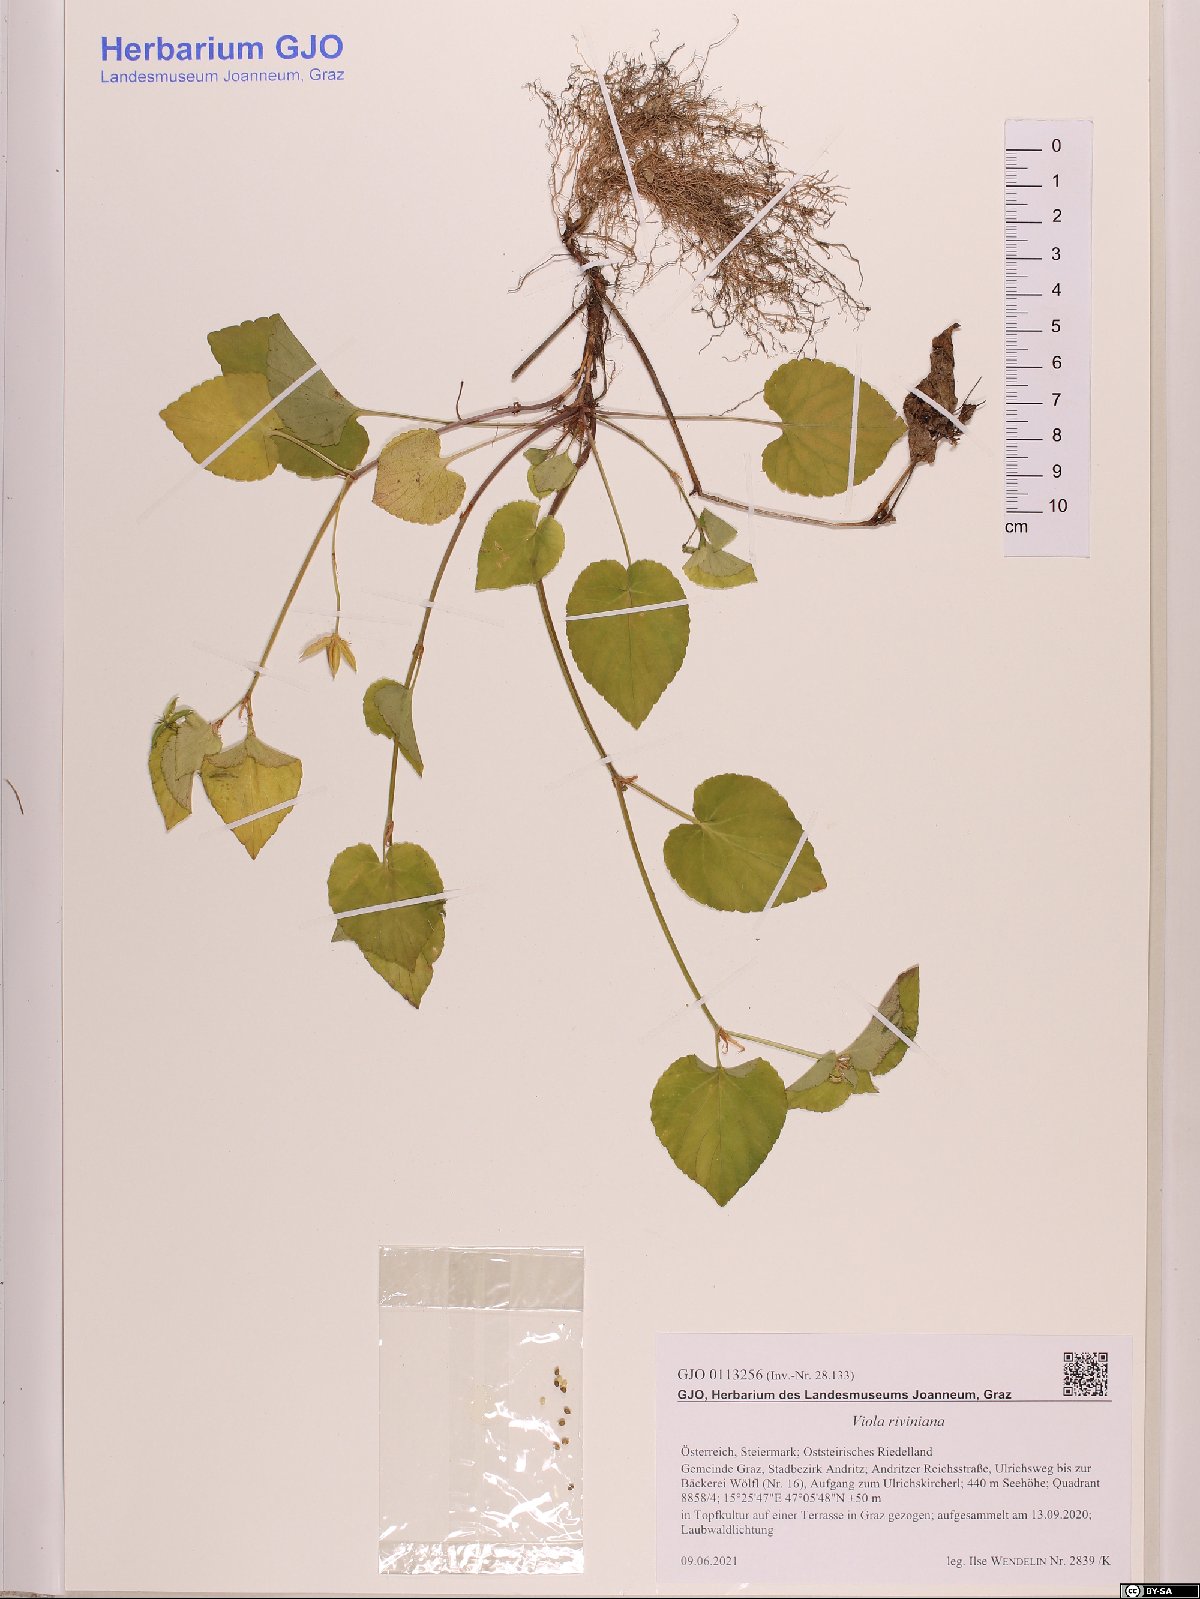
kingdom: Plantae
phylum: Tracheophyta
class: Magnoliopsida
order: Malpighiales
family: Violaceae
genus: Viola
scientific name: Viola riviniana
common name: Common dog-violet
